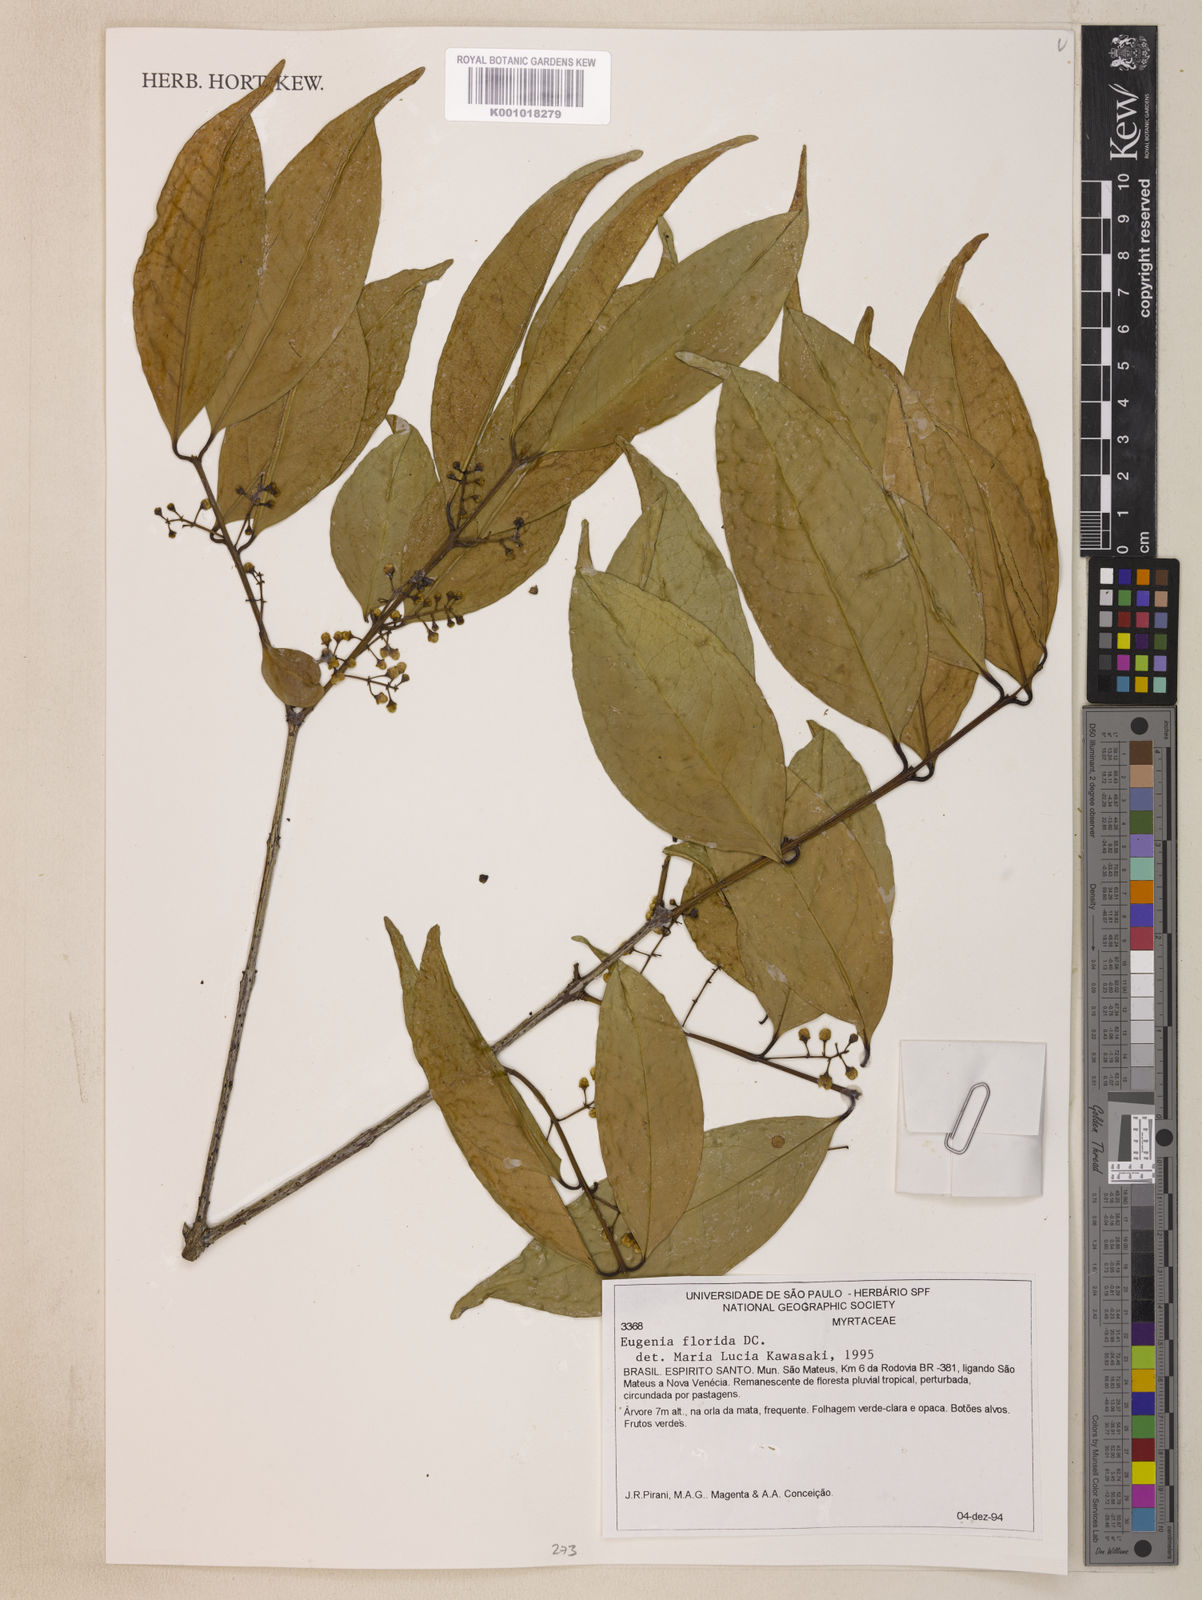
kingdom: Plantae
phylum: Tracheophyta
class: Magnoliopsida
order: Myrtales
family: Myrtaceae
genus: Eugenia
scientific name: Eugenia florida
